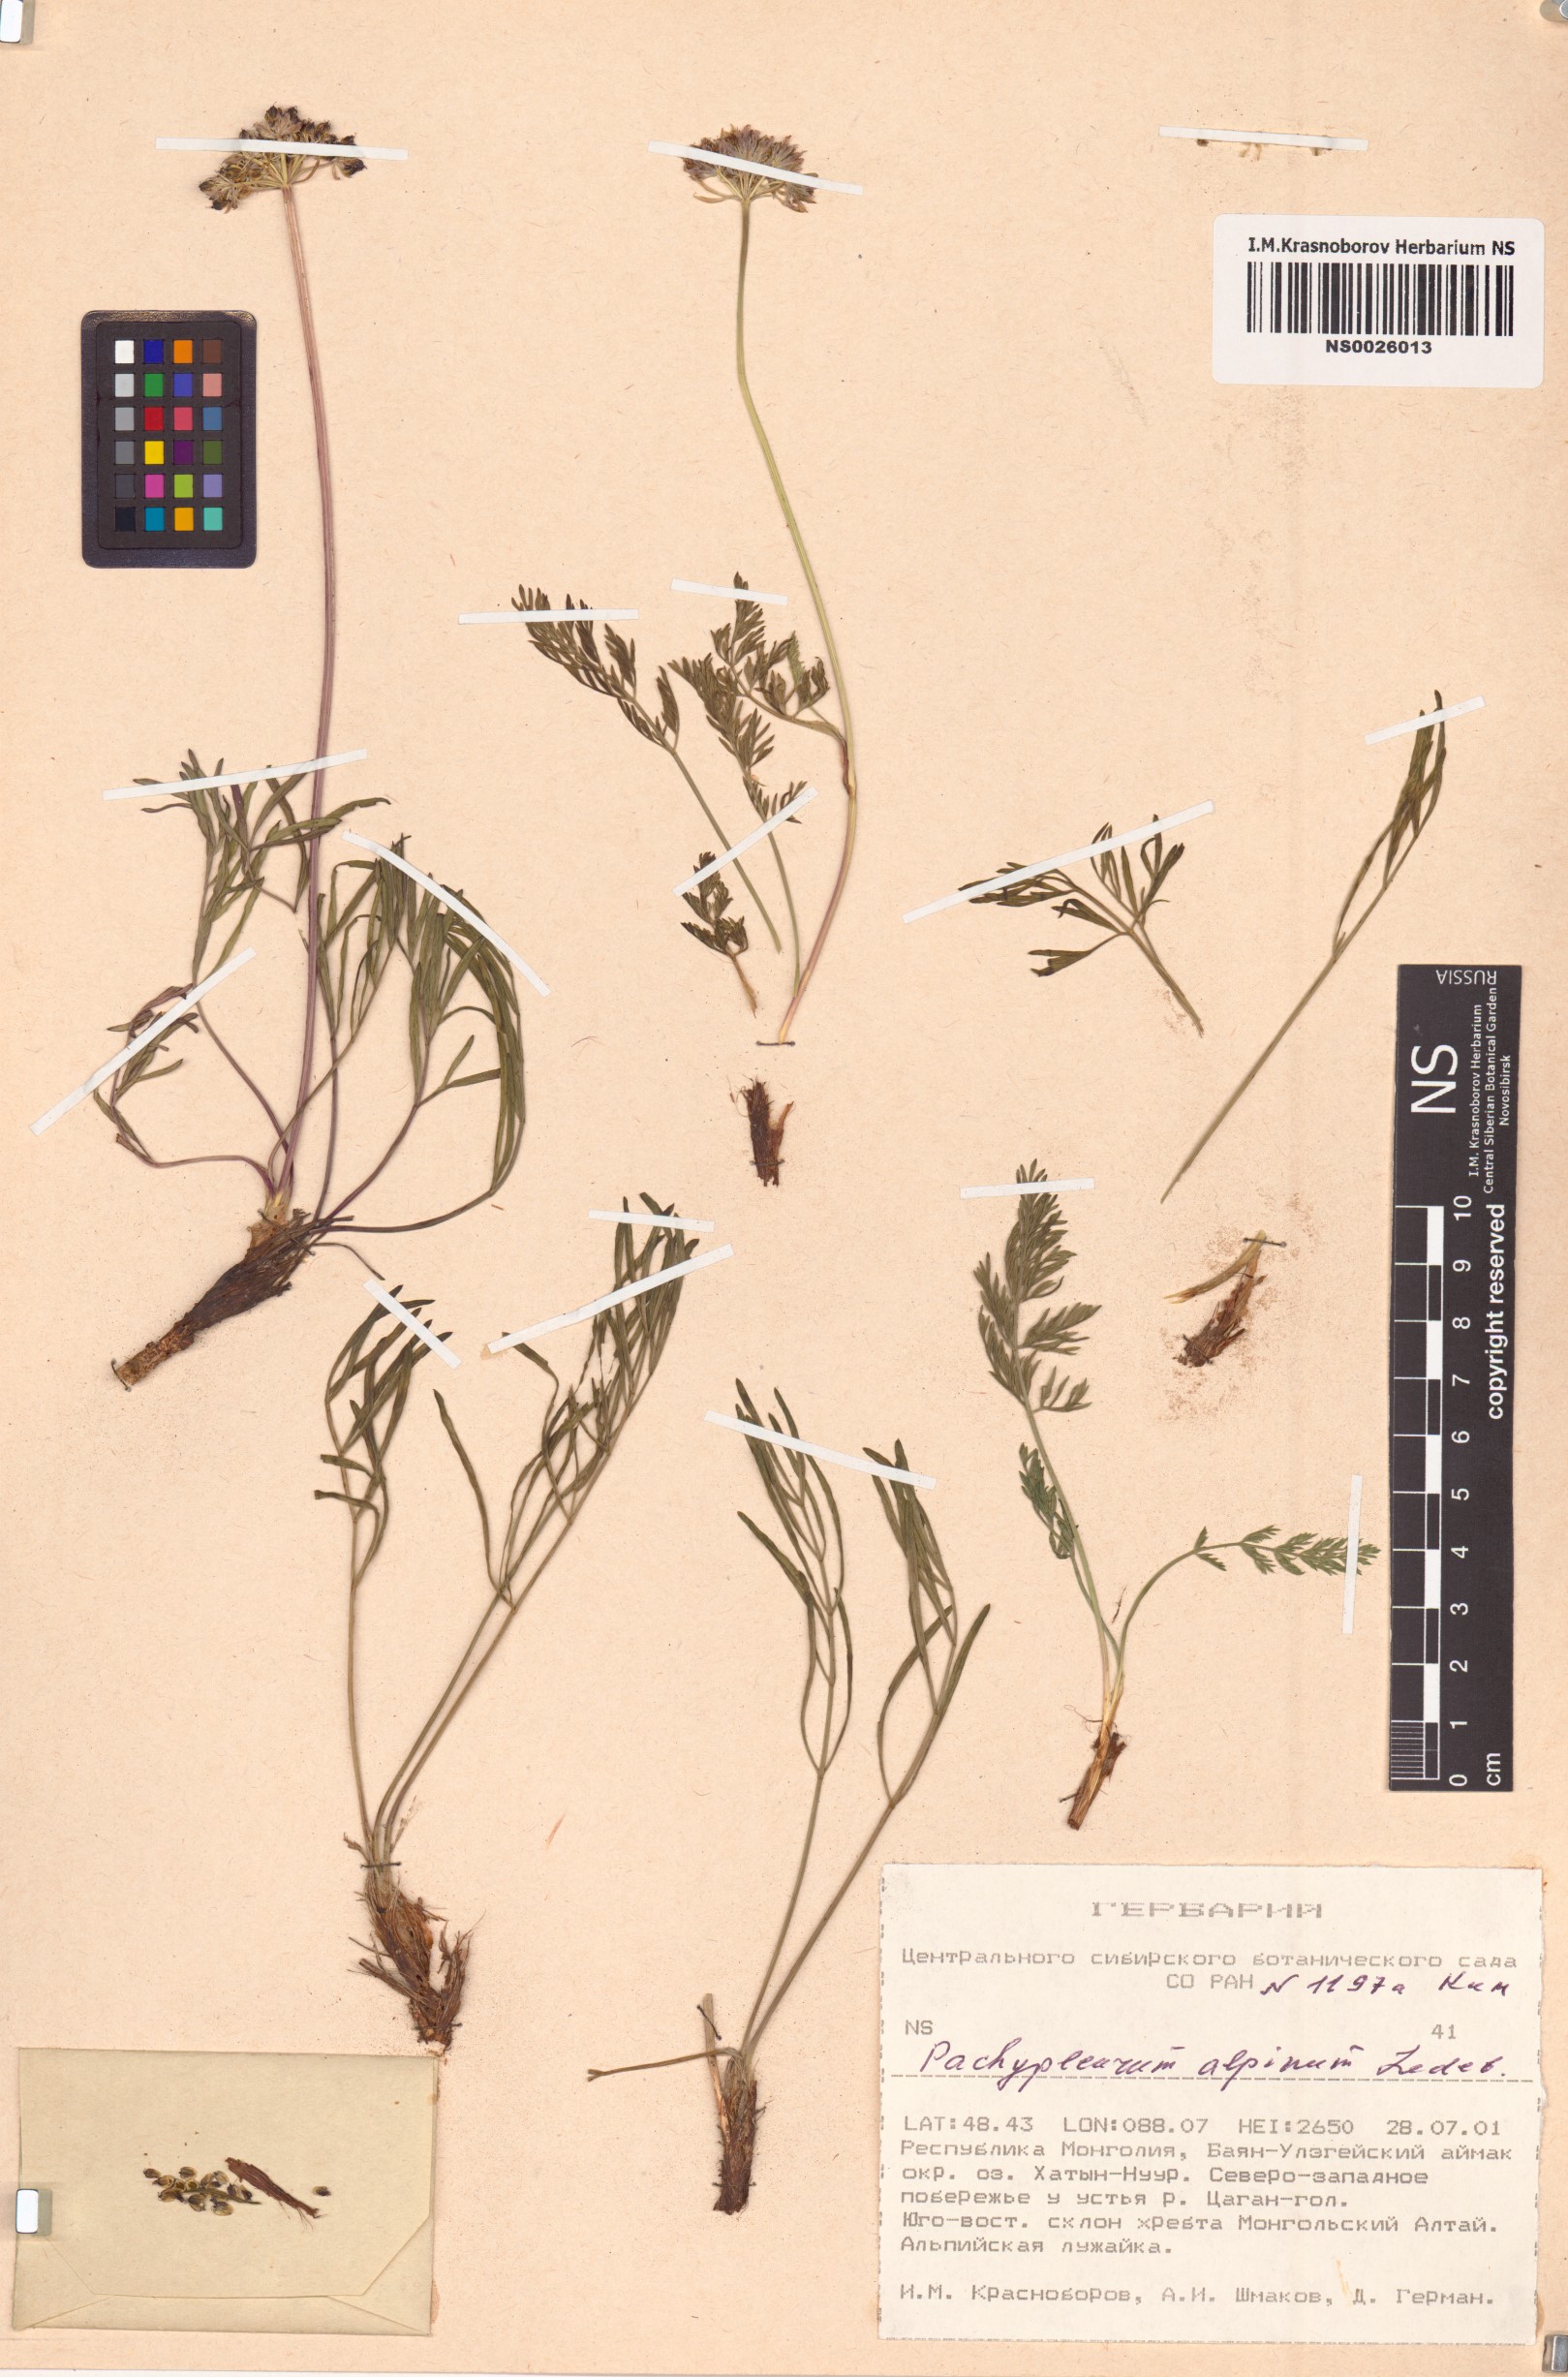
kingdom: Plantae
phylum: Tracheophyta
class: Magnoliopsida
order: Apiales
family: Apiaceae
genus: Pachypleurum
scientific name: Pachypleurum mutellinoides
